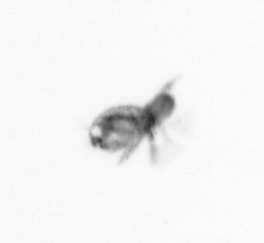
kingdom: Animalia
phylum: Arthropoda
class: Copepoda
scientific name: Copepoda
